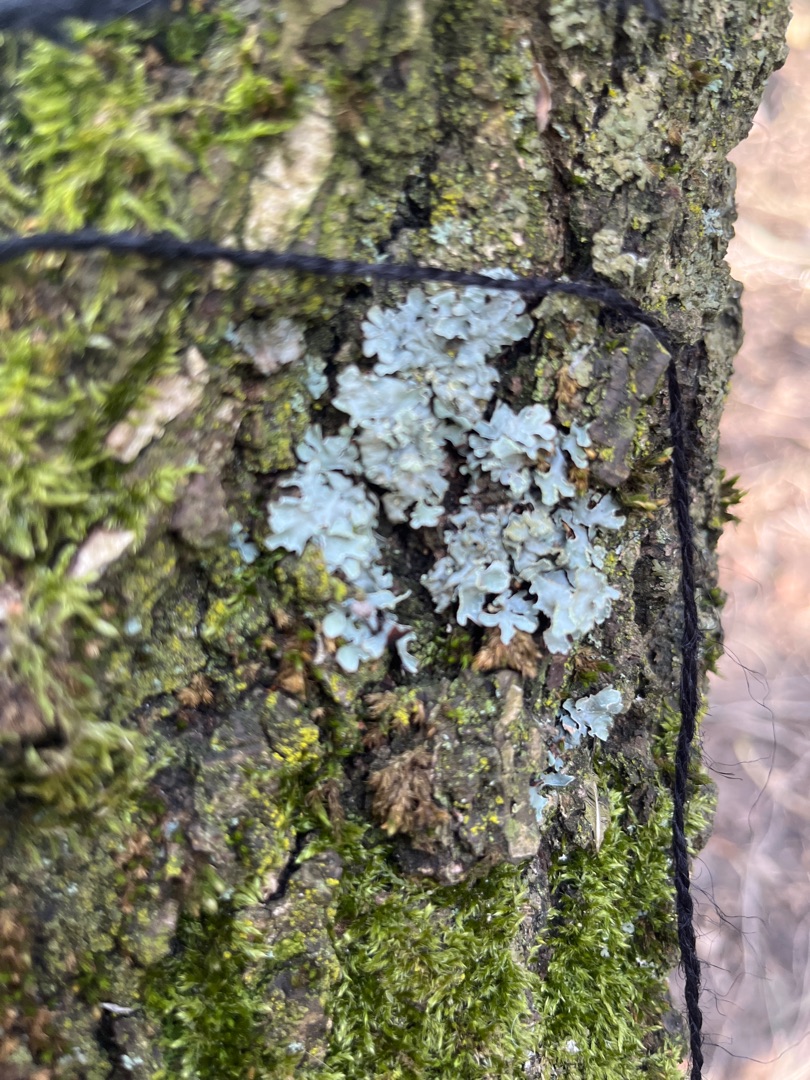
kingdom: Fungi
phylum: Ascomycota
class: Lecanoromycetes
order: Lecanorales
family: Parmeliaceae
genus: Parmelia
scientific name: Parmelia sulcata
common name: Rynket skållav
